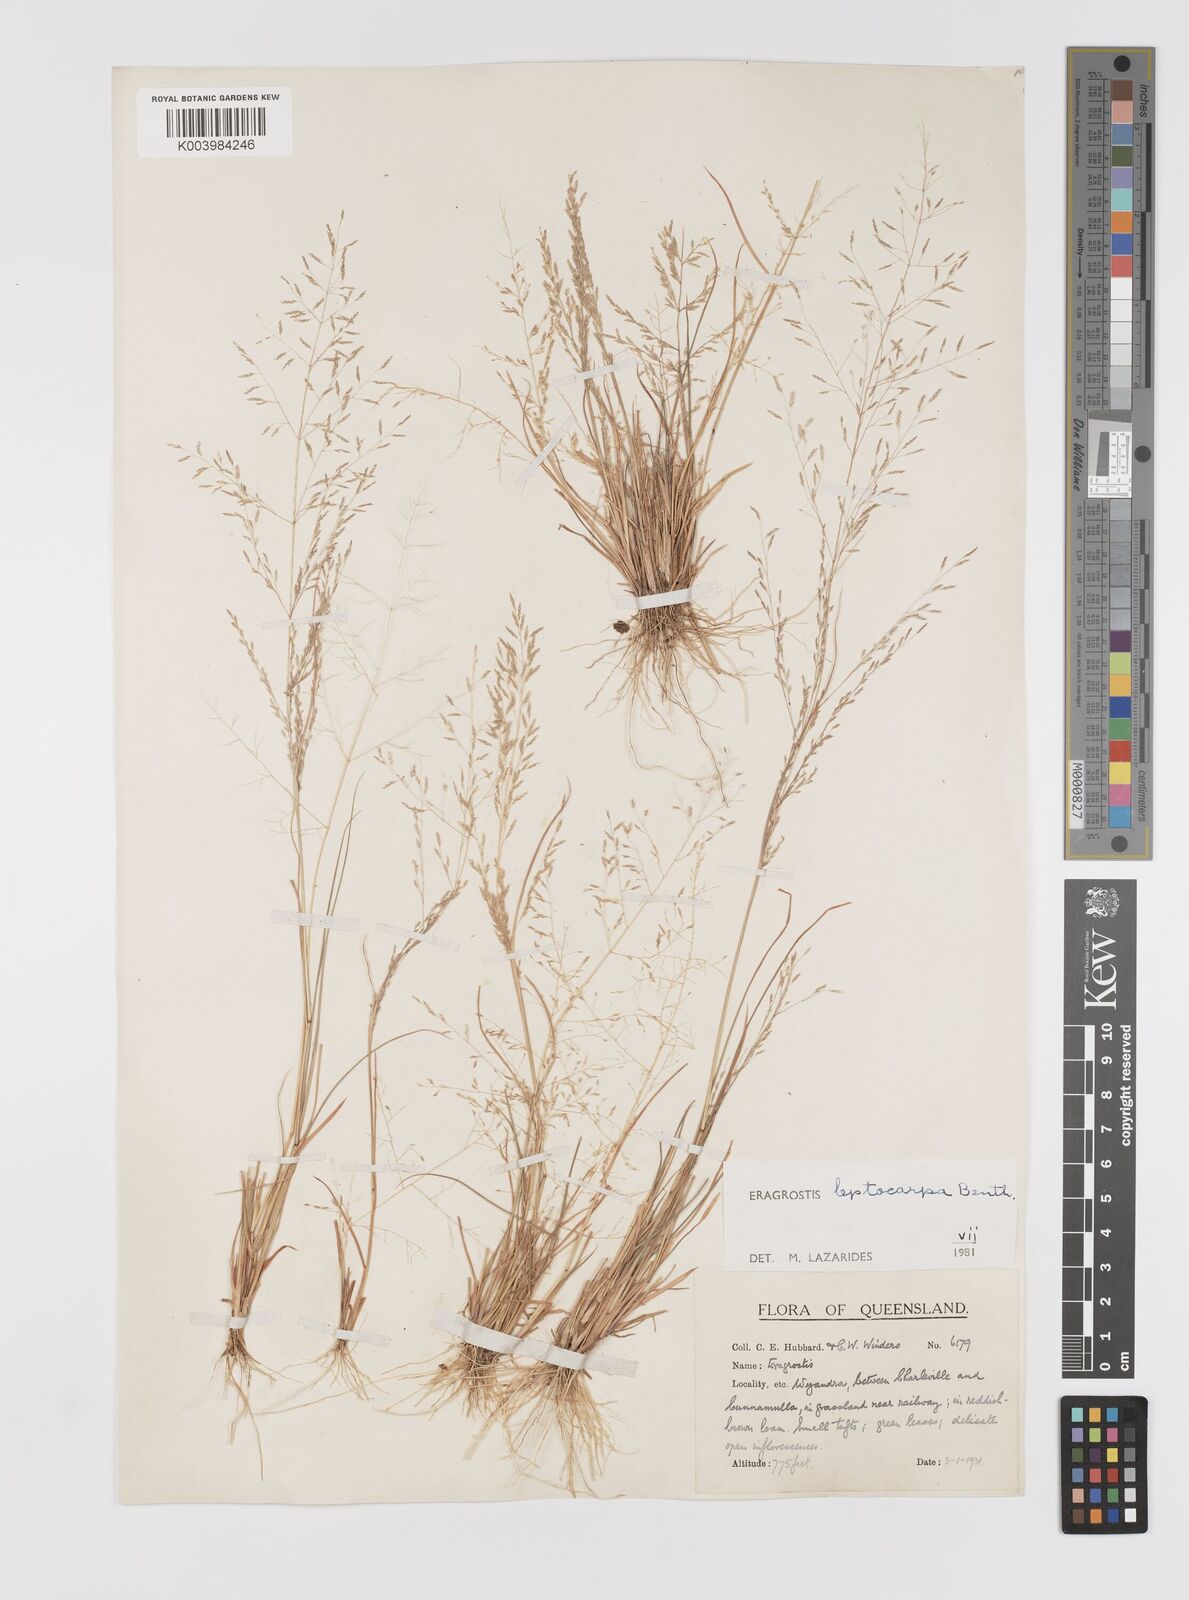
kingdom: Plantae
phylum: Tracheophyta
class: Liliopsida
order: Poales
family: Poaceae
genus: Eragrostis
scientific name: Eragrostis leptocarpa
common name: Drooping love grass
